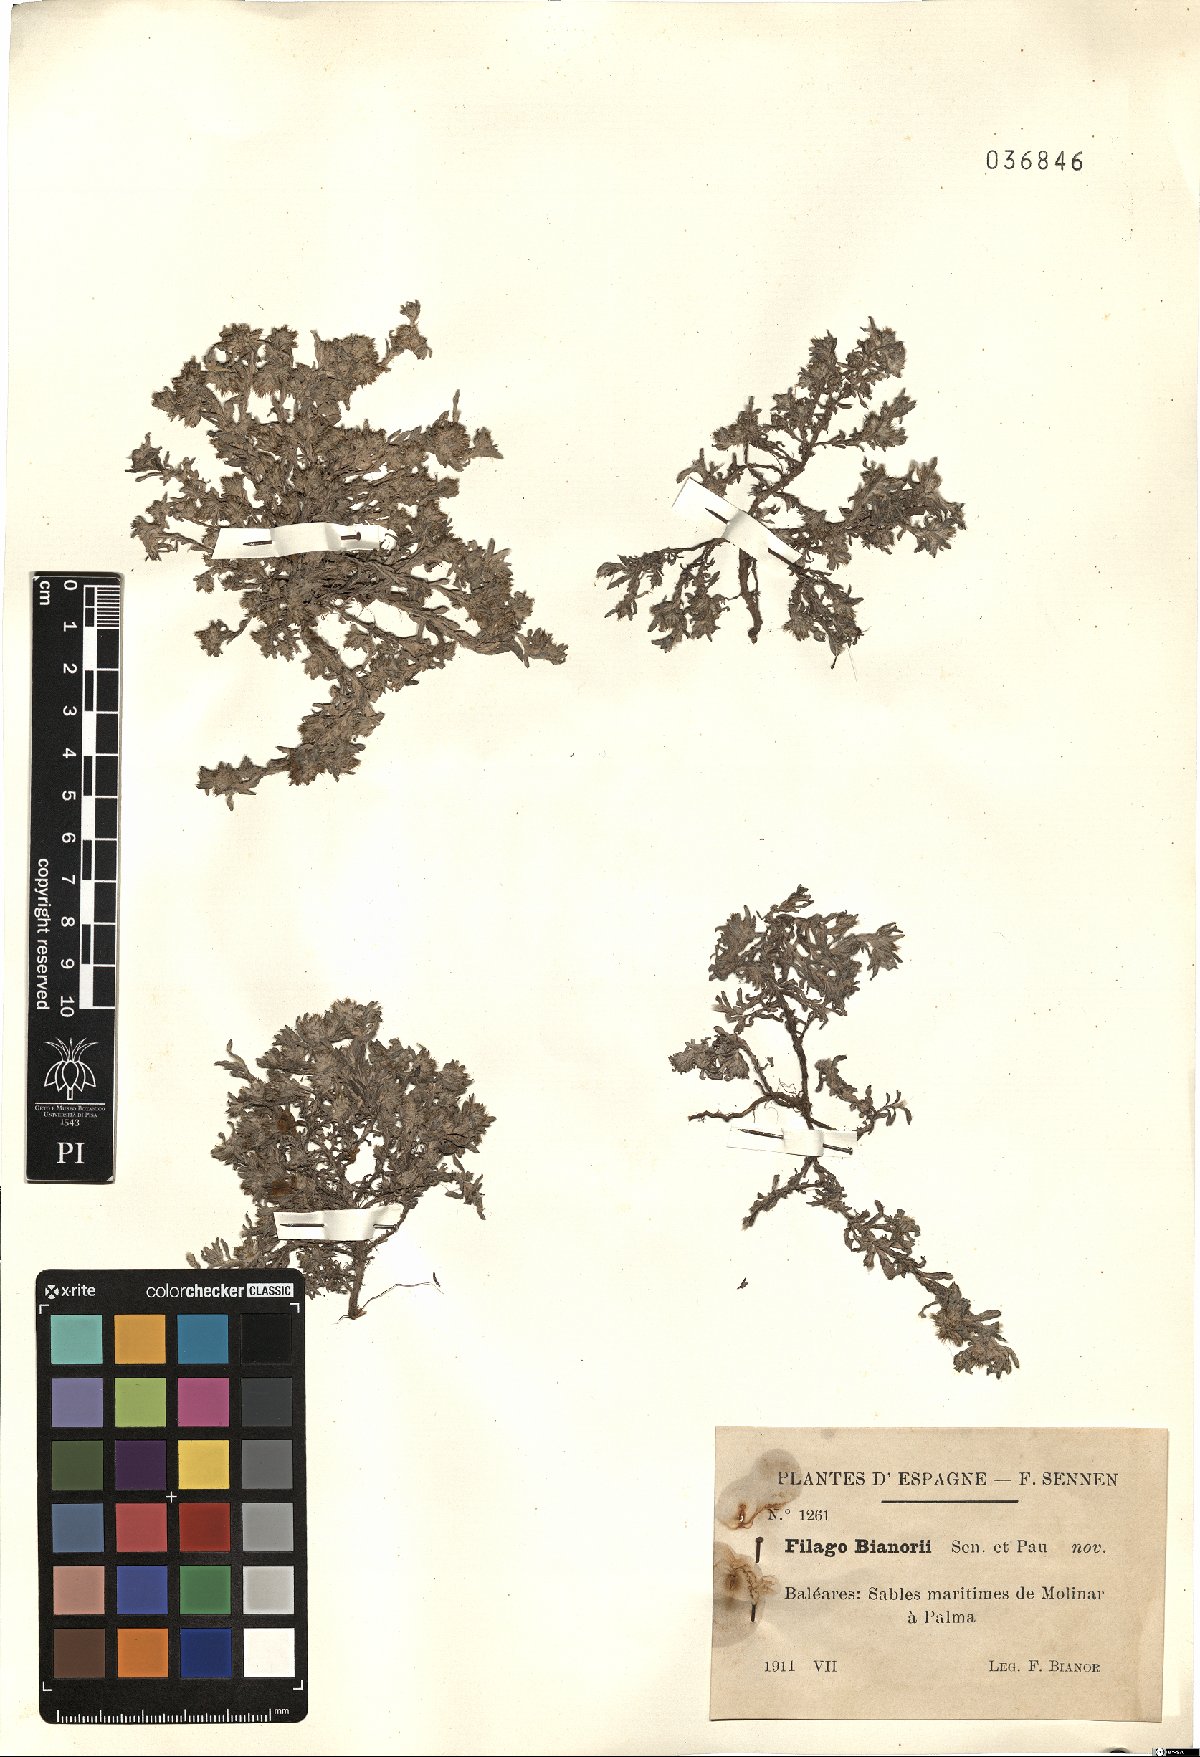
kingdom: Plantae
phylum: Tracheophyta
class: Magnoliopsida
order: Asterales
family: Asteraceae
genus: Filago
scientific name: Filago congesta
